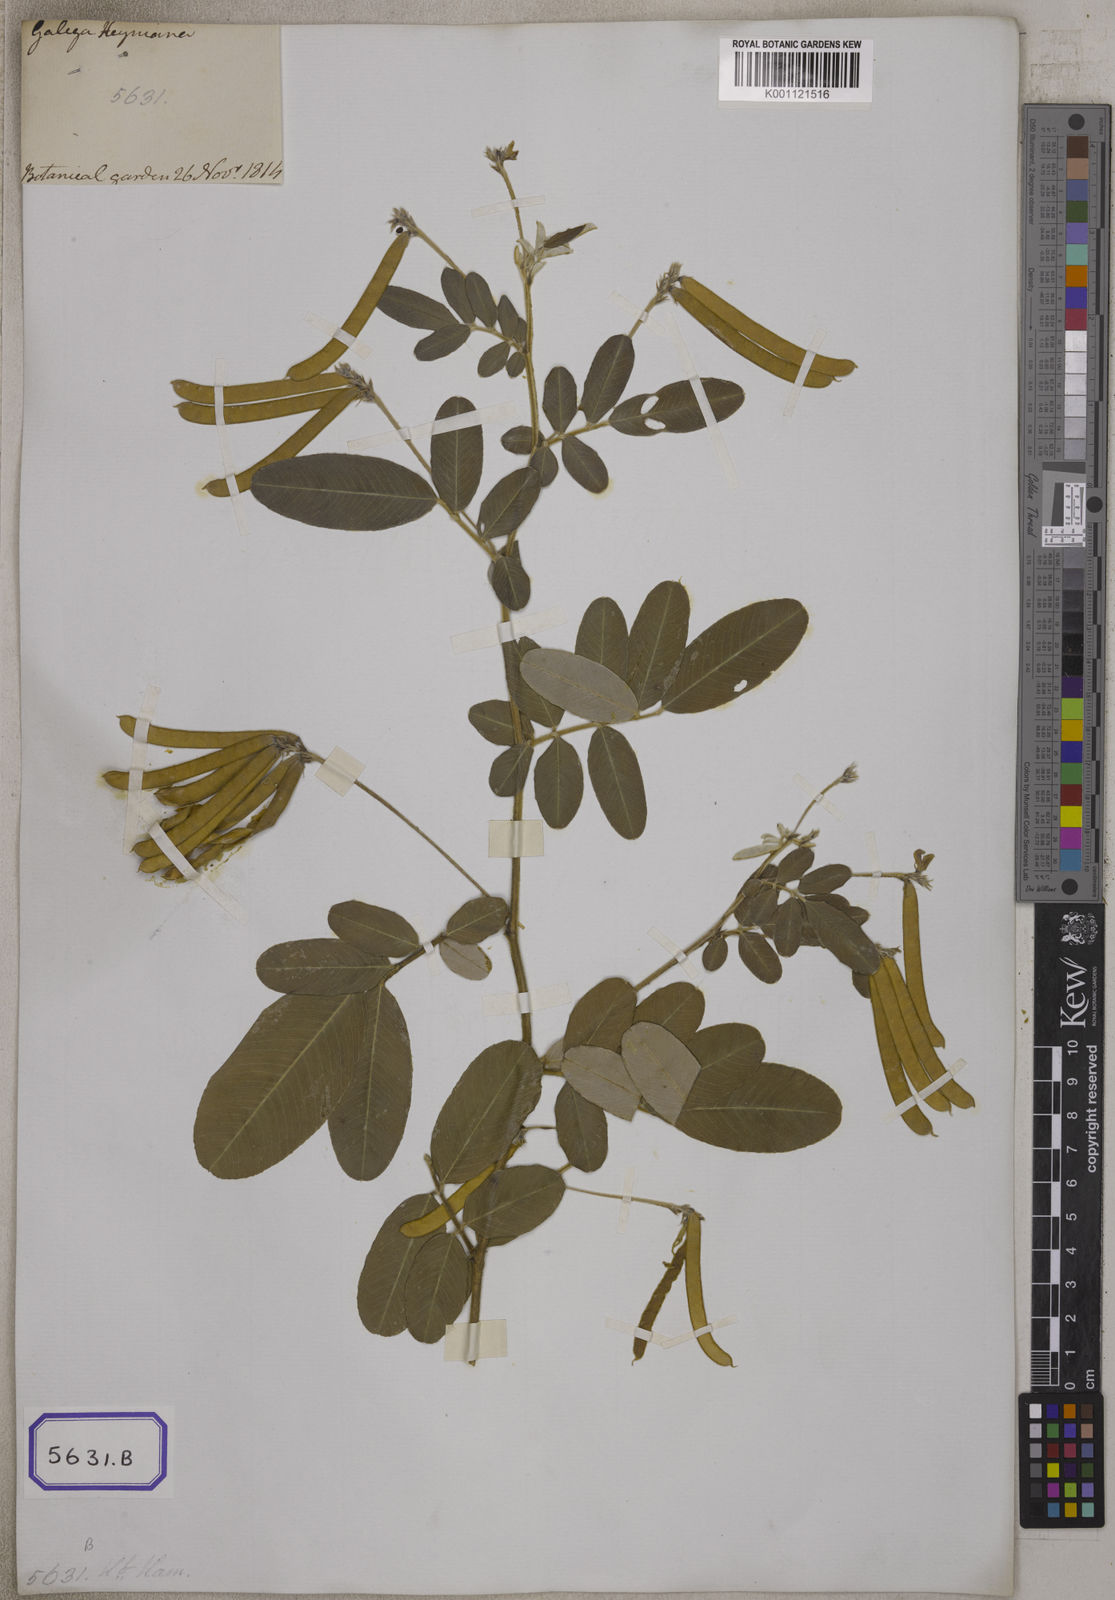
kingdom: Plantae
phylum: Tracheophyta
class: Magnoliopsida
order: Fabales
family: Fabaceae
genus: Tephrosia
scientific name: Tephrosia
